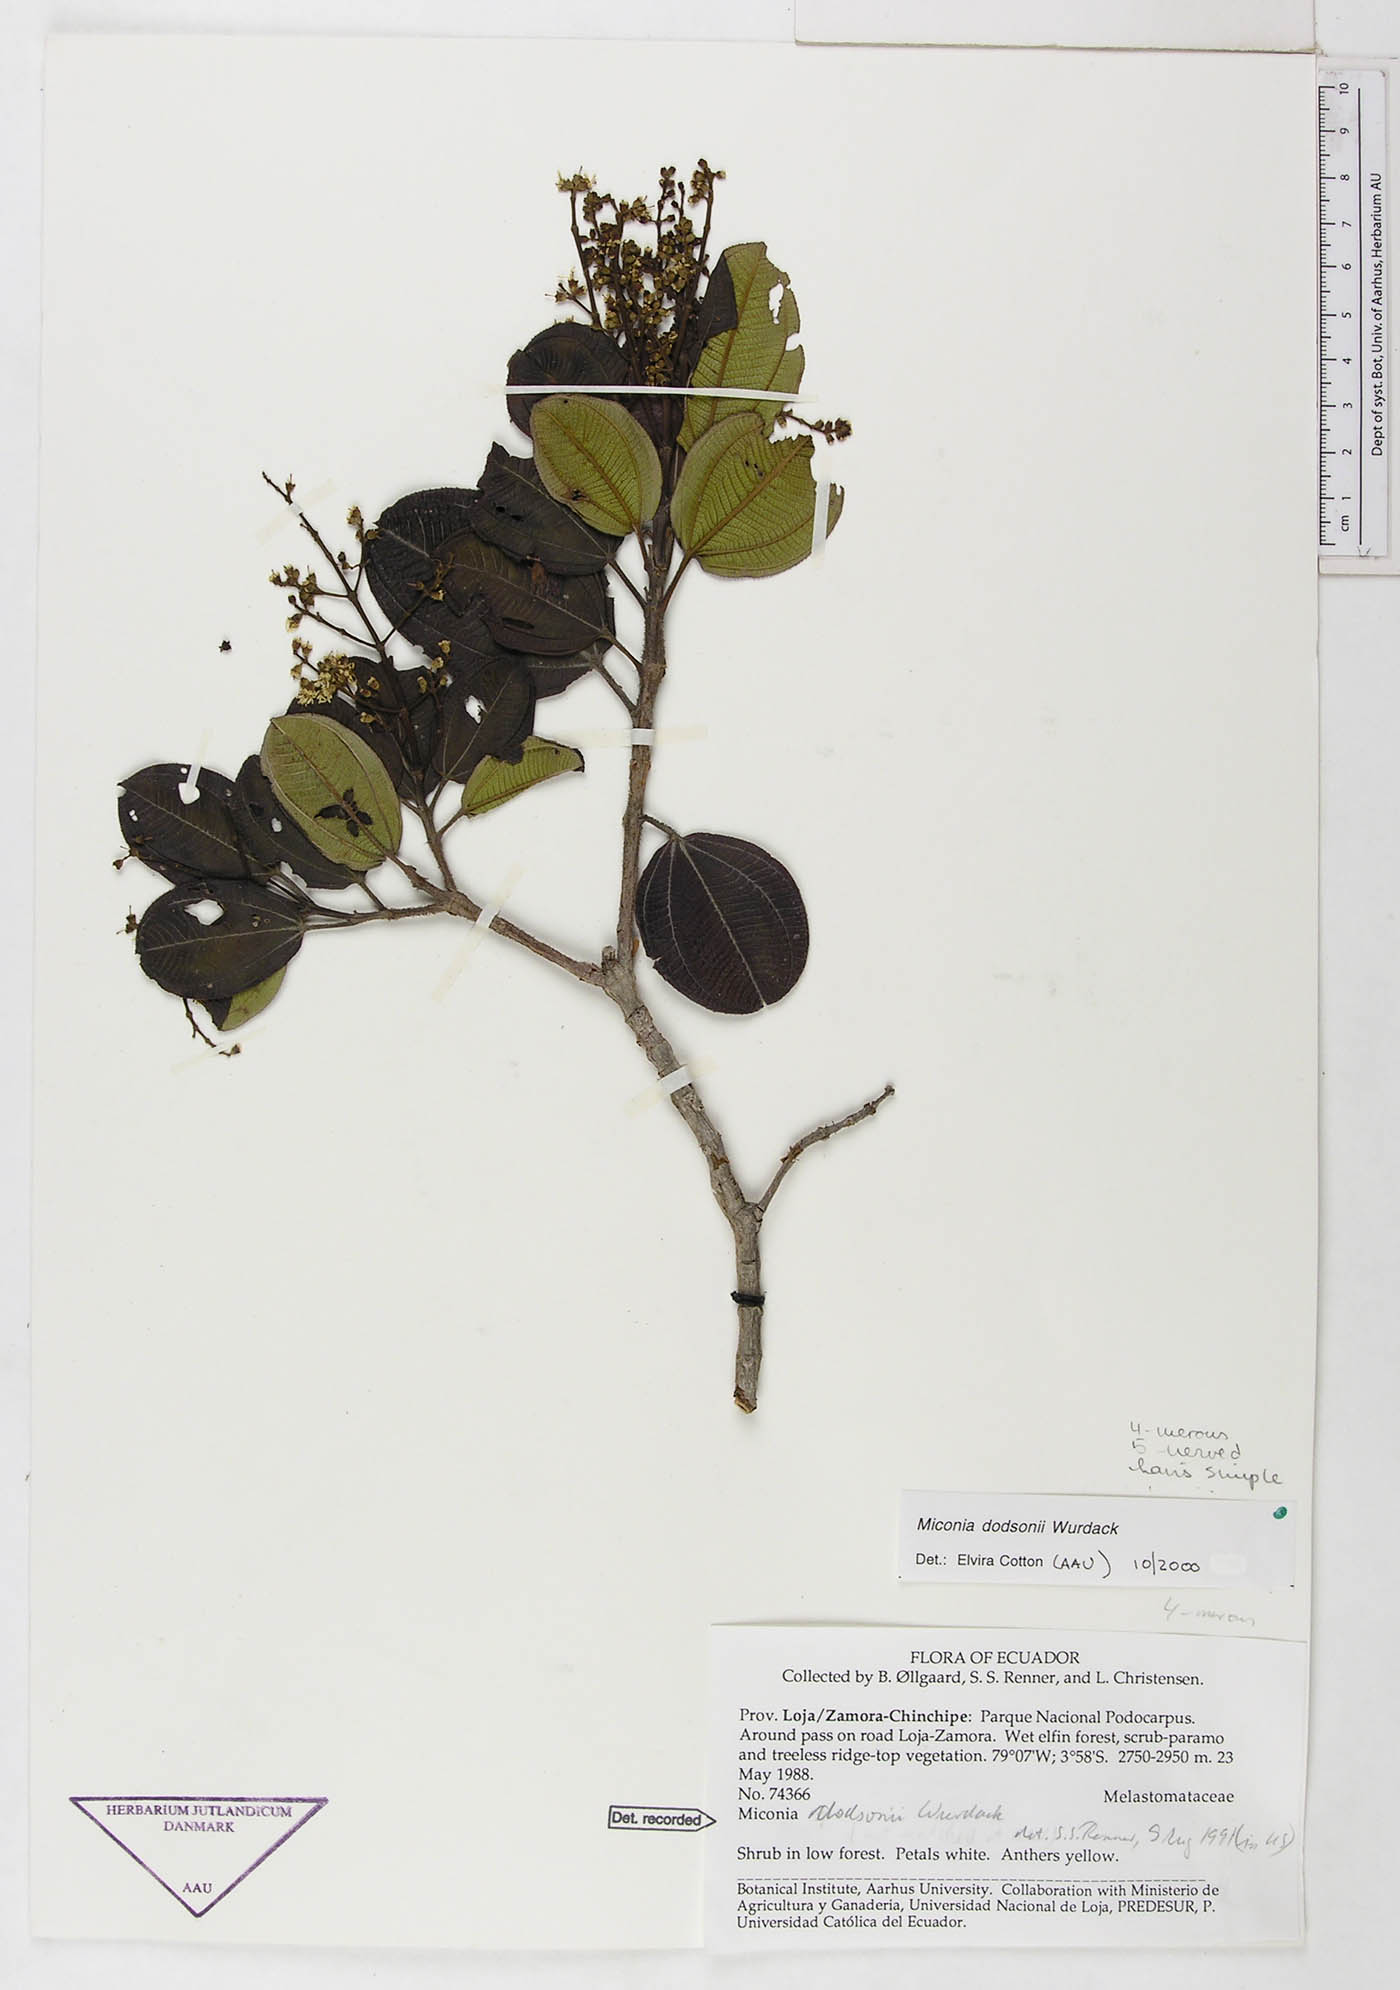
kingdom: Plantae
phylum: Tracheophyta
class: Magnoliopsida
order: Myrtales
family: Melastomataceae
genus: Miconia
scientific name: Miconia dodsonii
